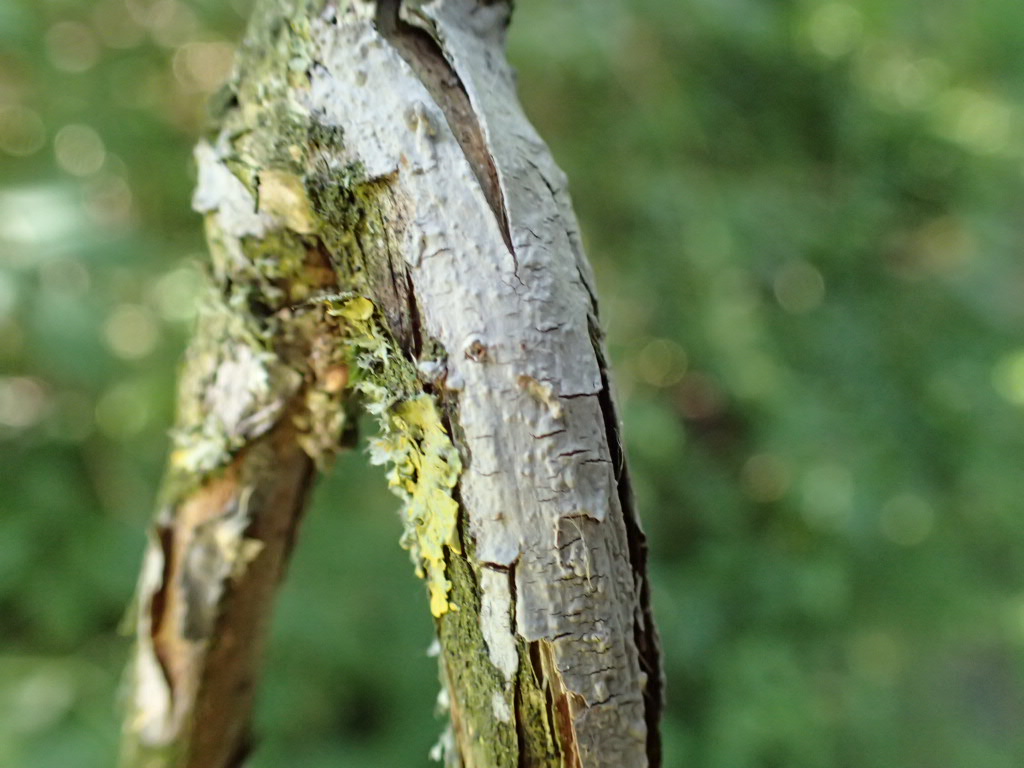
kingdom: Fungi
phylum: Basidiomycota
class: Agaricomycetes
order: Russulales
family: Peniophoraceae
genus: Peniophora
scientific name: Peniophora
